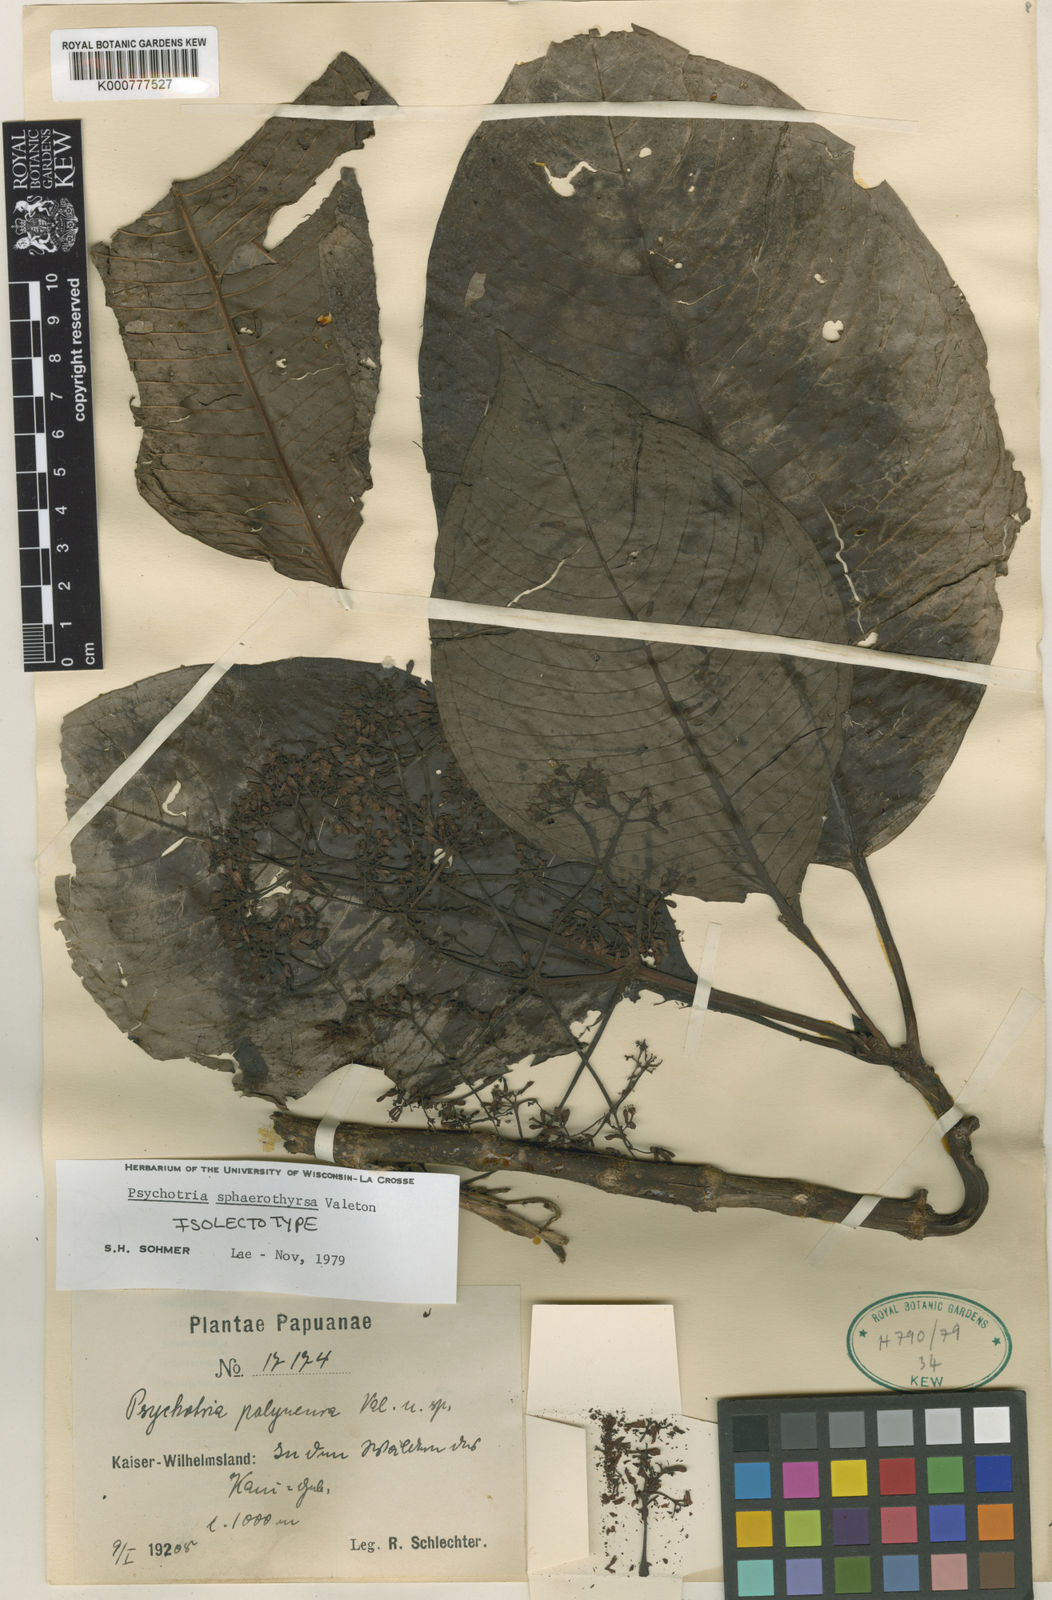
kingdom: Plantae
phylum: Tracheophyta
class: Magnoliopsida
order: Gentianales
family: Rubiaceae
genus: Psychotria
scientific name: Psychotria sphaerothyrsa
